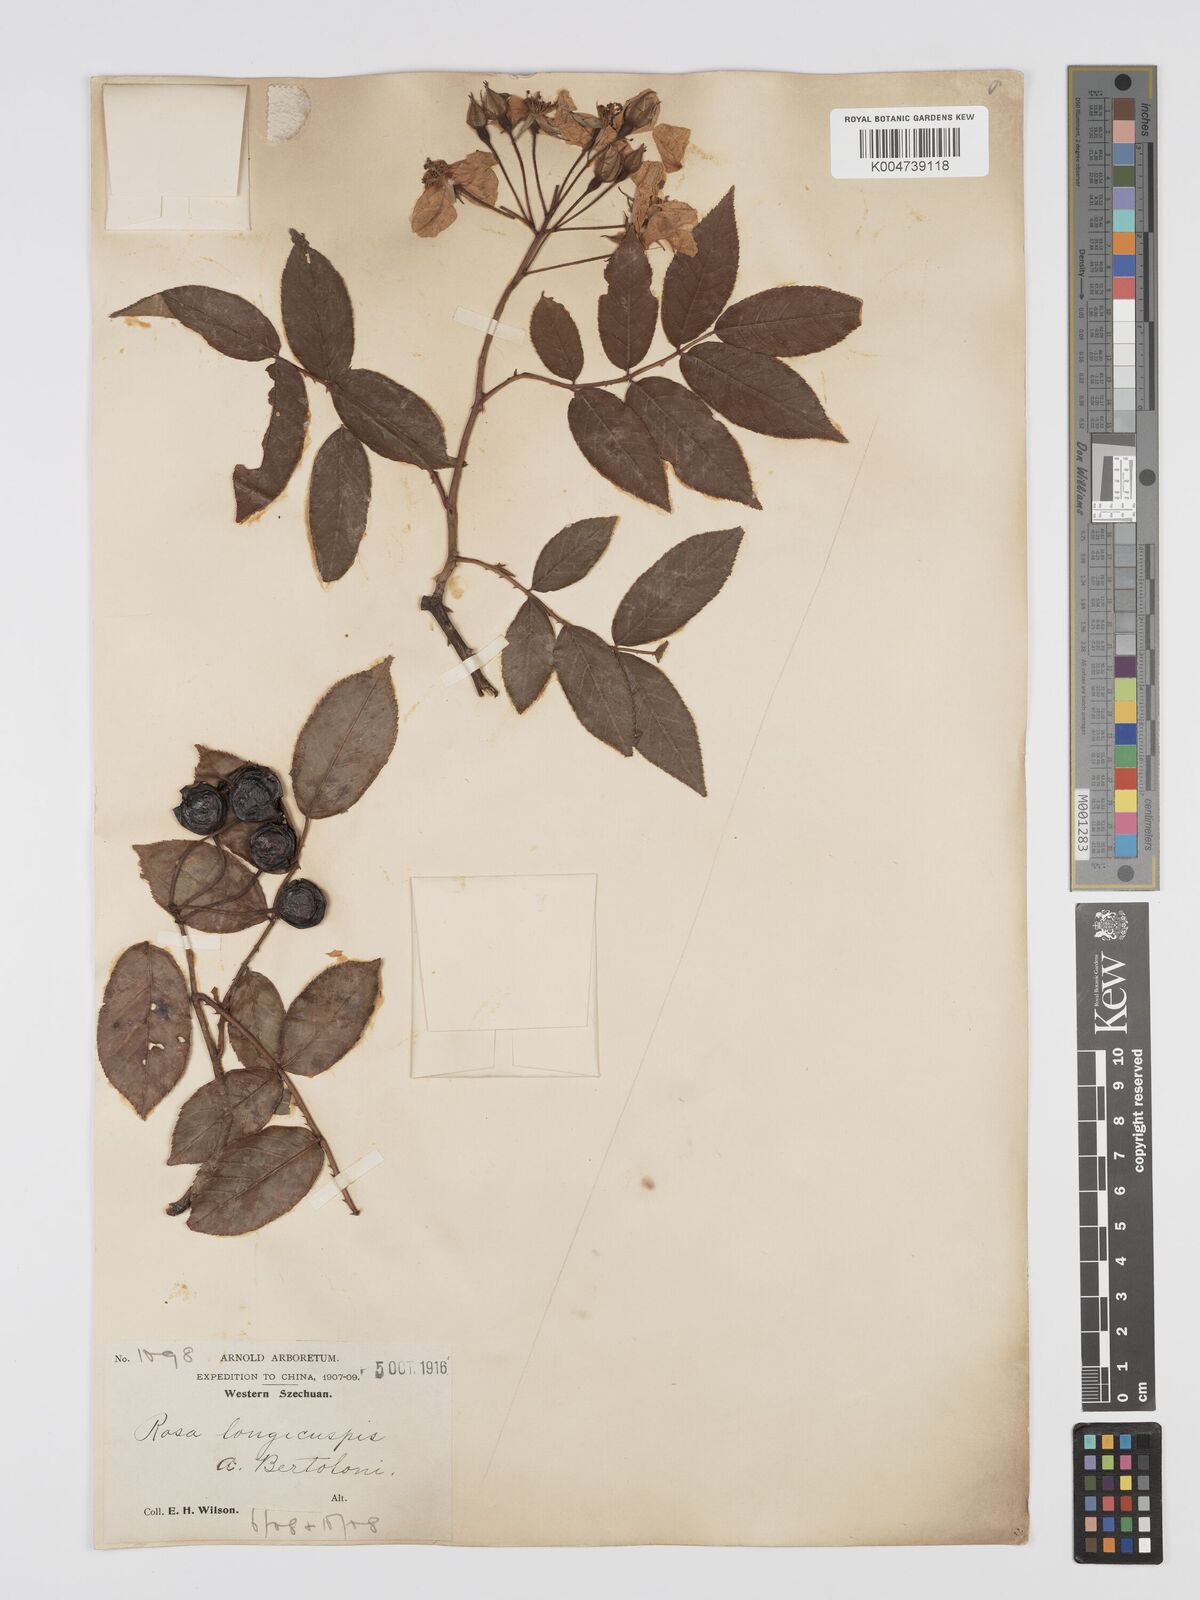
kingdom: Plantae
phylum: Tracheophyta
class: Magnoliopsida
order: Rosales
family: Rosaceae
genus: Rosa
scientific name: Rosa longicuspis
